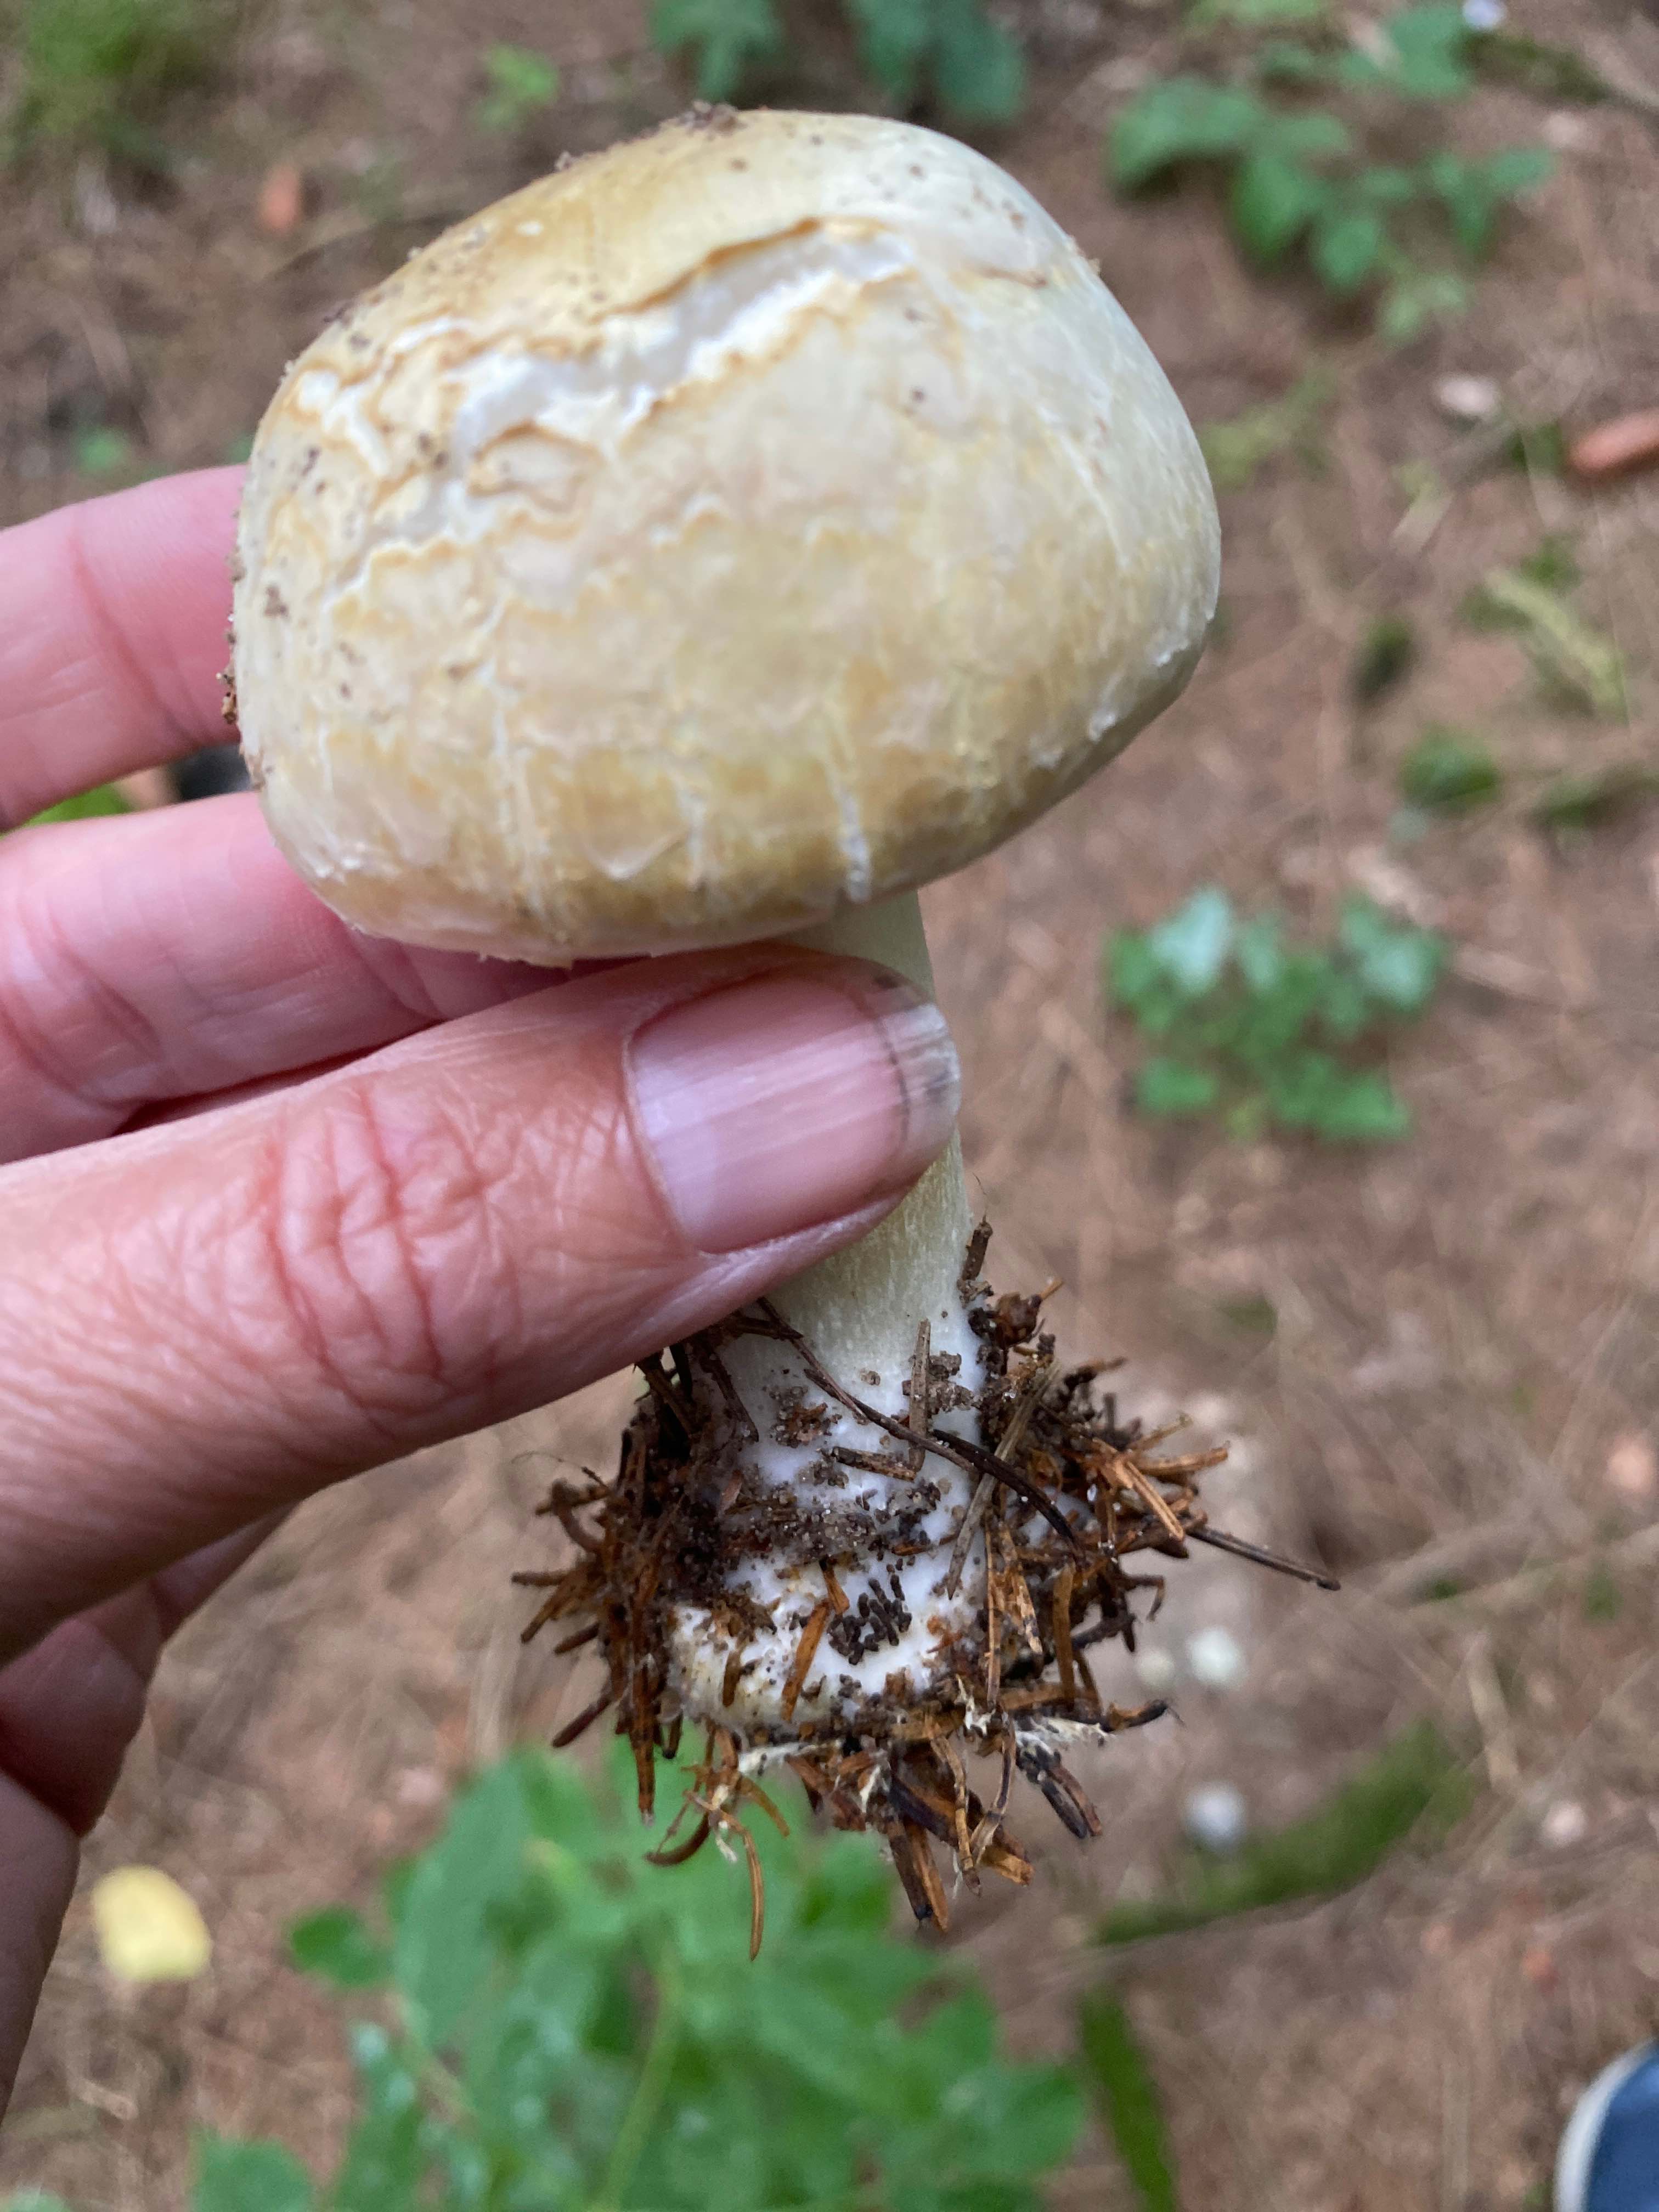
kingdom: Fungi
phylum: Basidiomycota
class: Agaricomycetes
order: Agaricales
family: Agaricaceae
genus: Agaricus
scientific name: Agaricus
